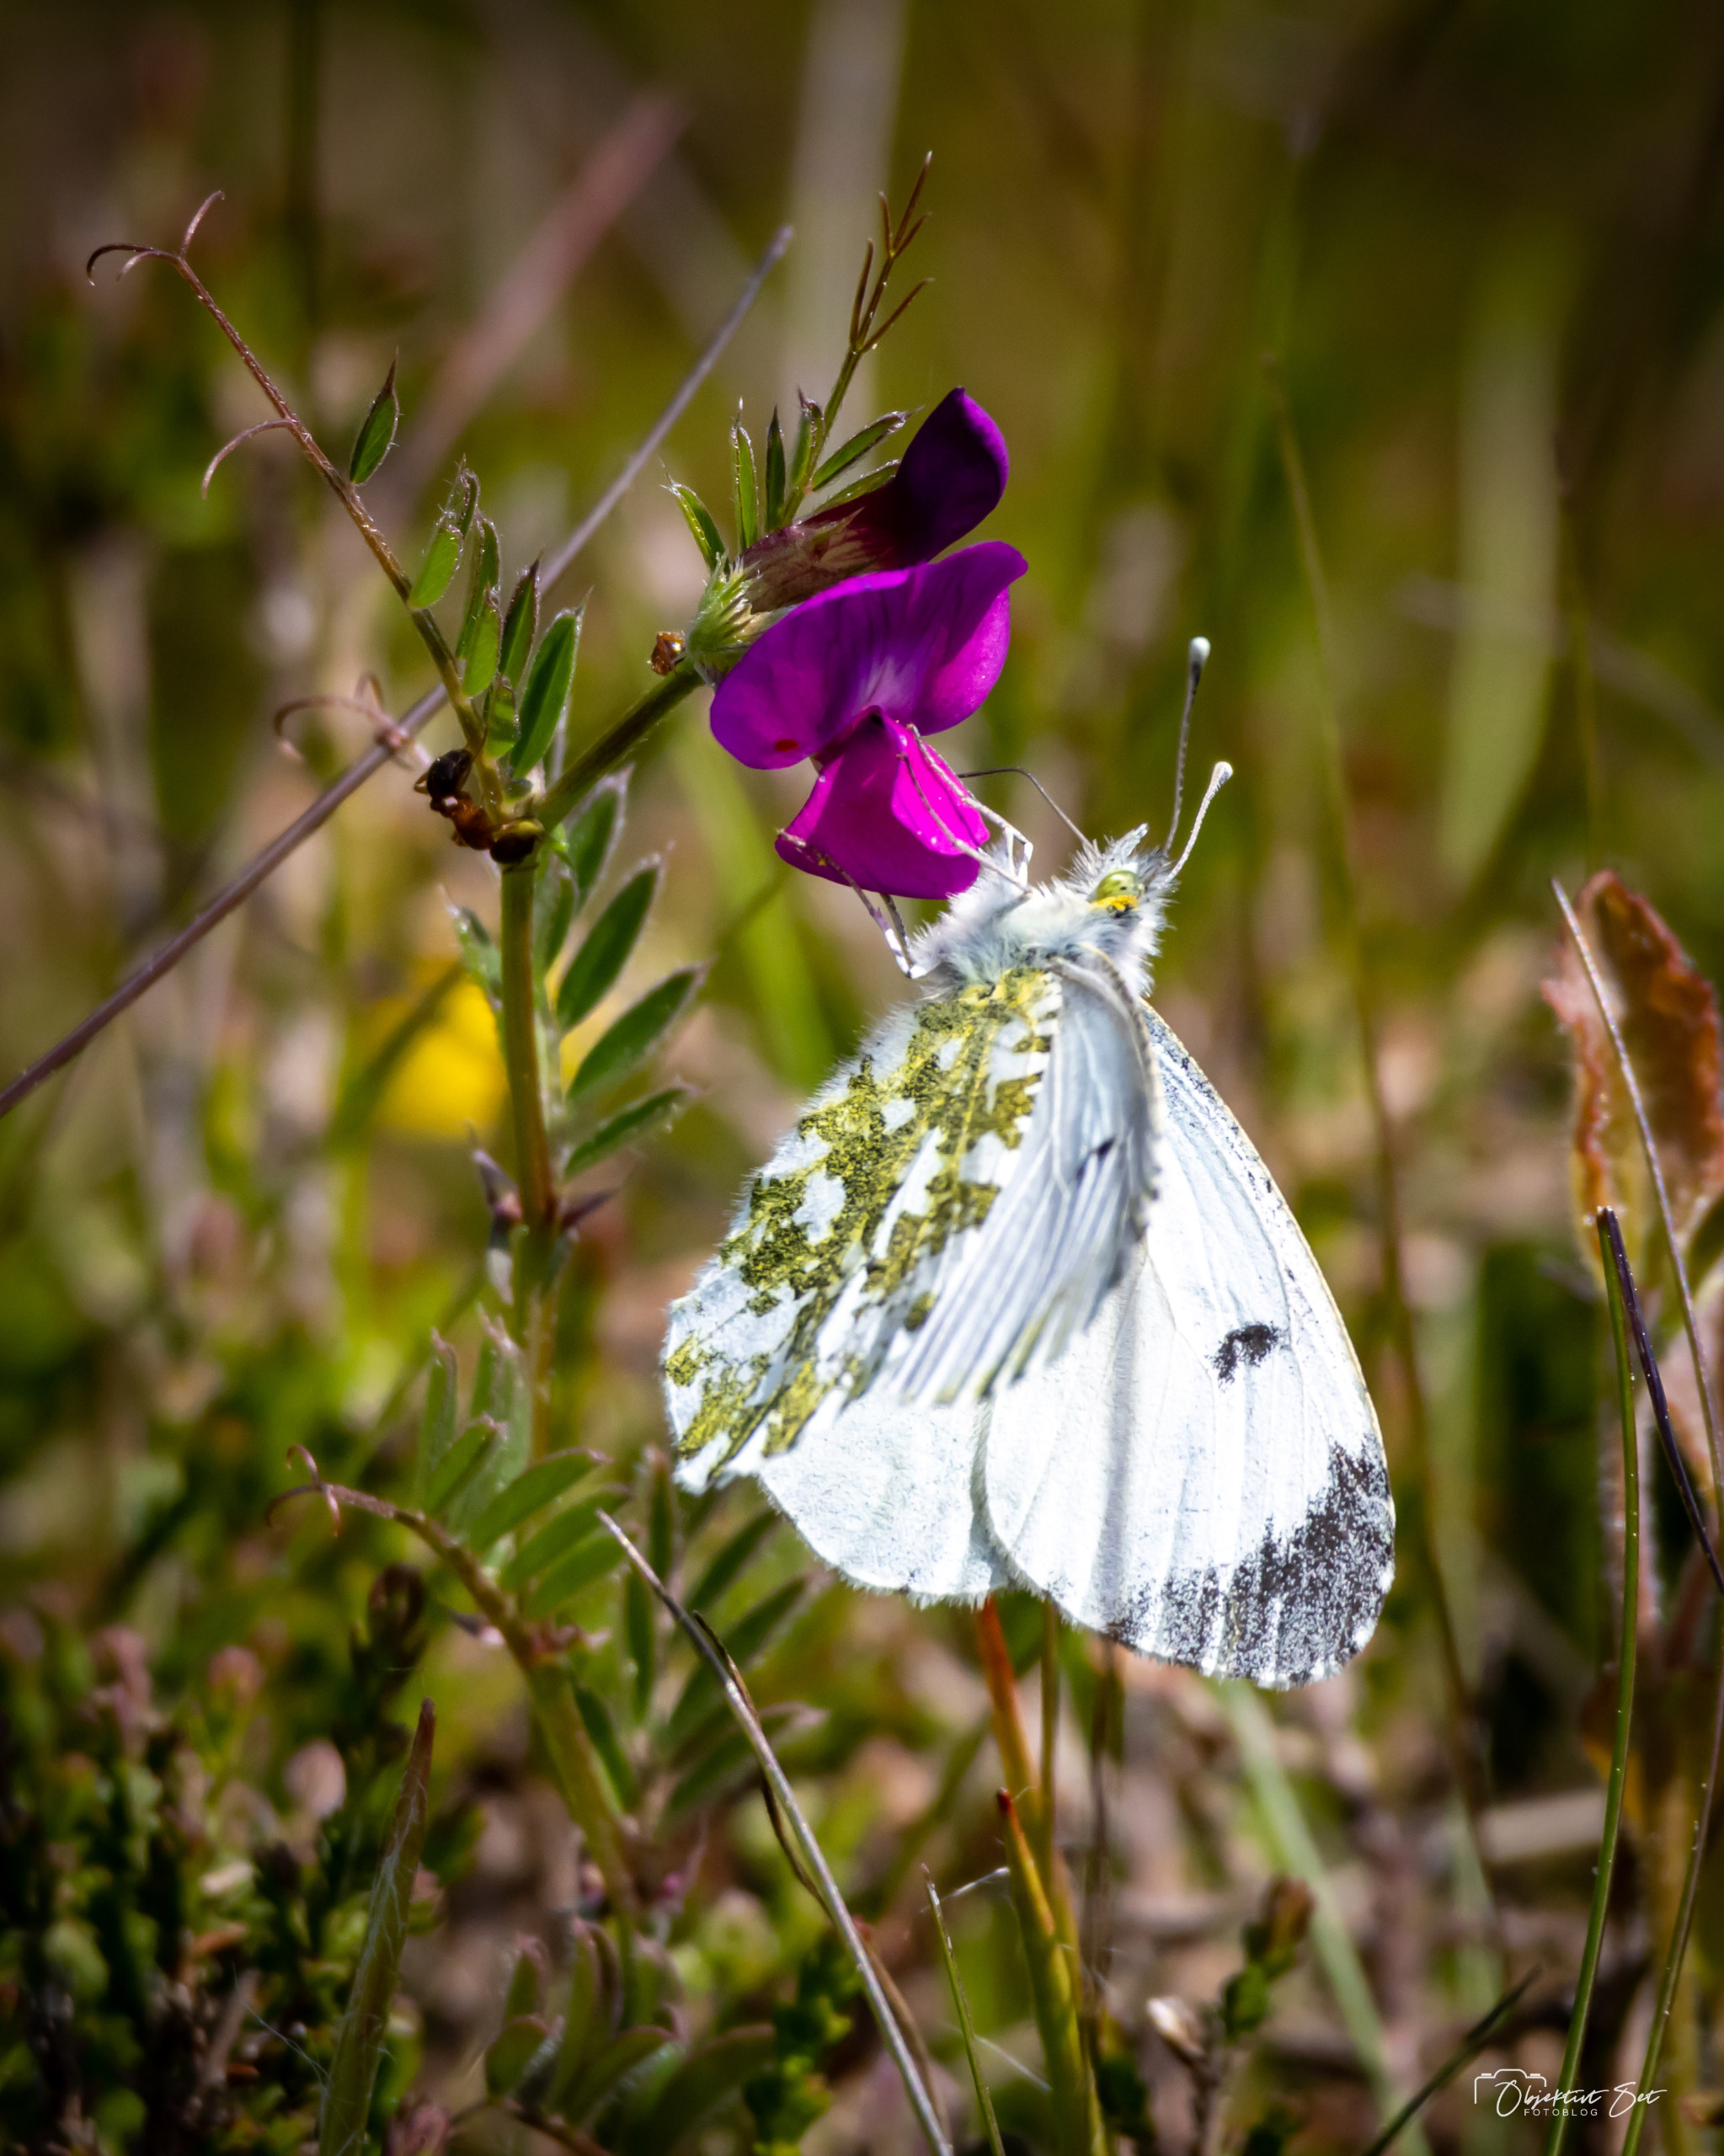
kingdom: Animalia
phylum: Arthropoda
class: Insecta
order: Lepidoptera
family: Pieridae
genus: Anthocharis
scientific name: Anthocharis cardamines
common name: Aurora
